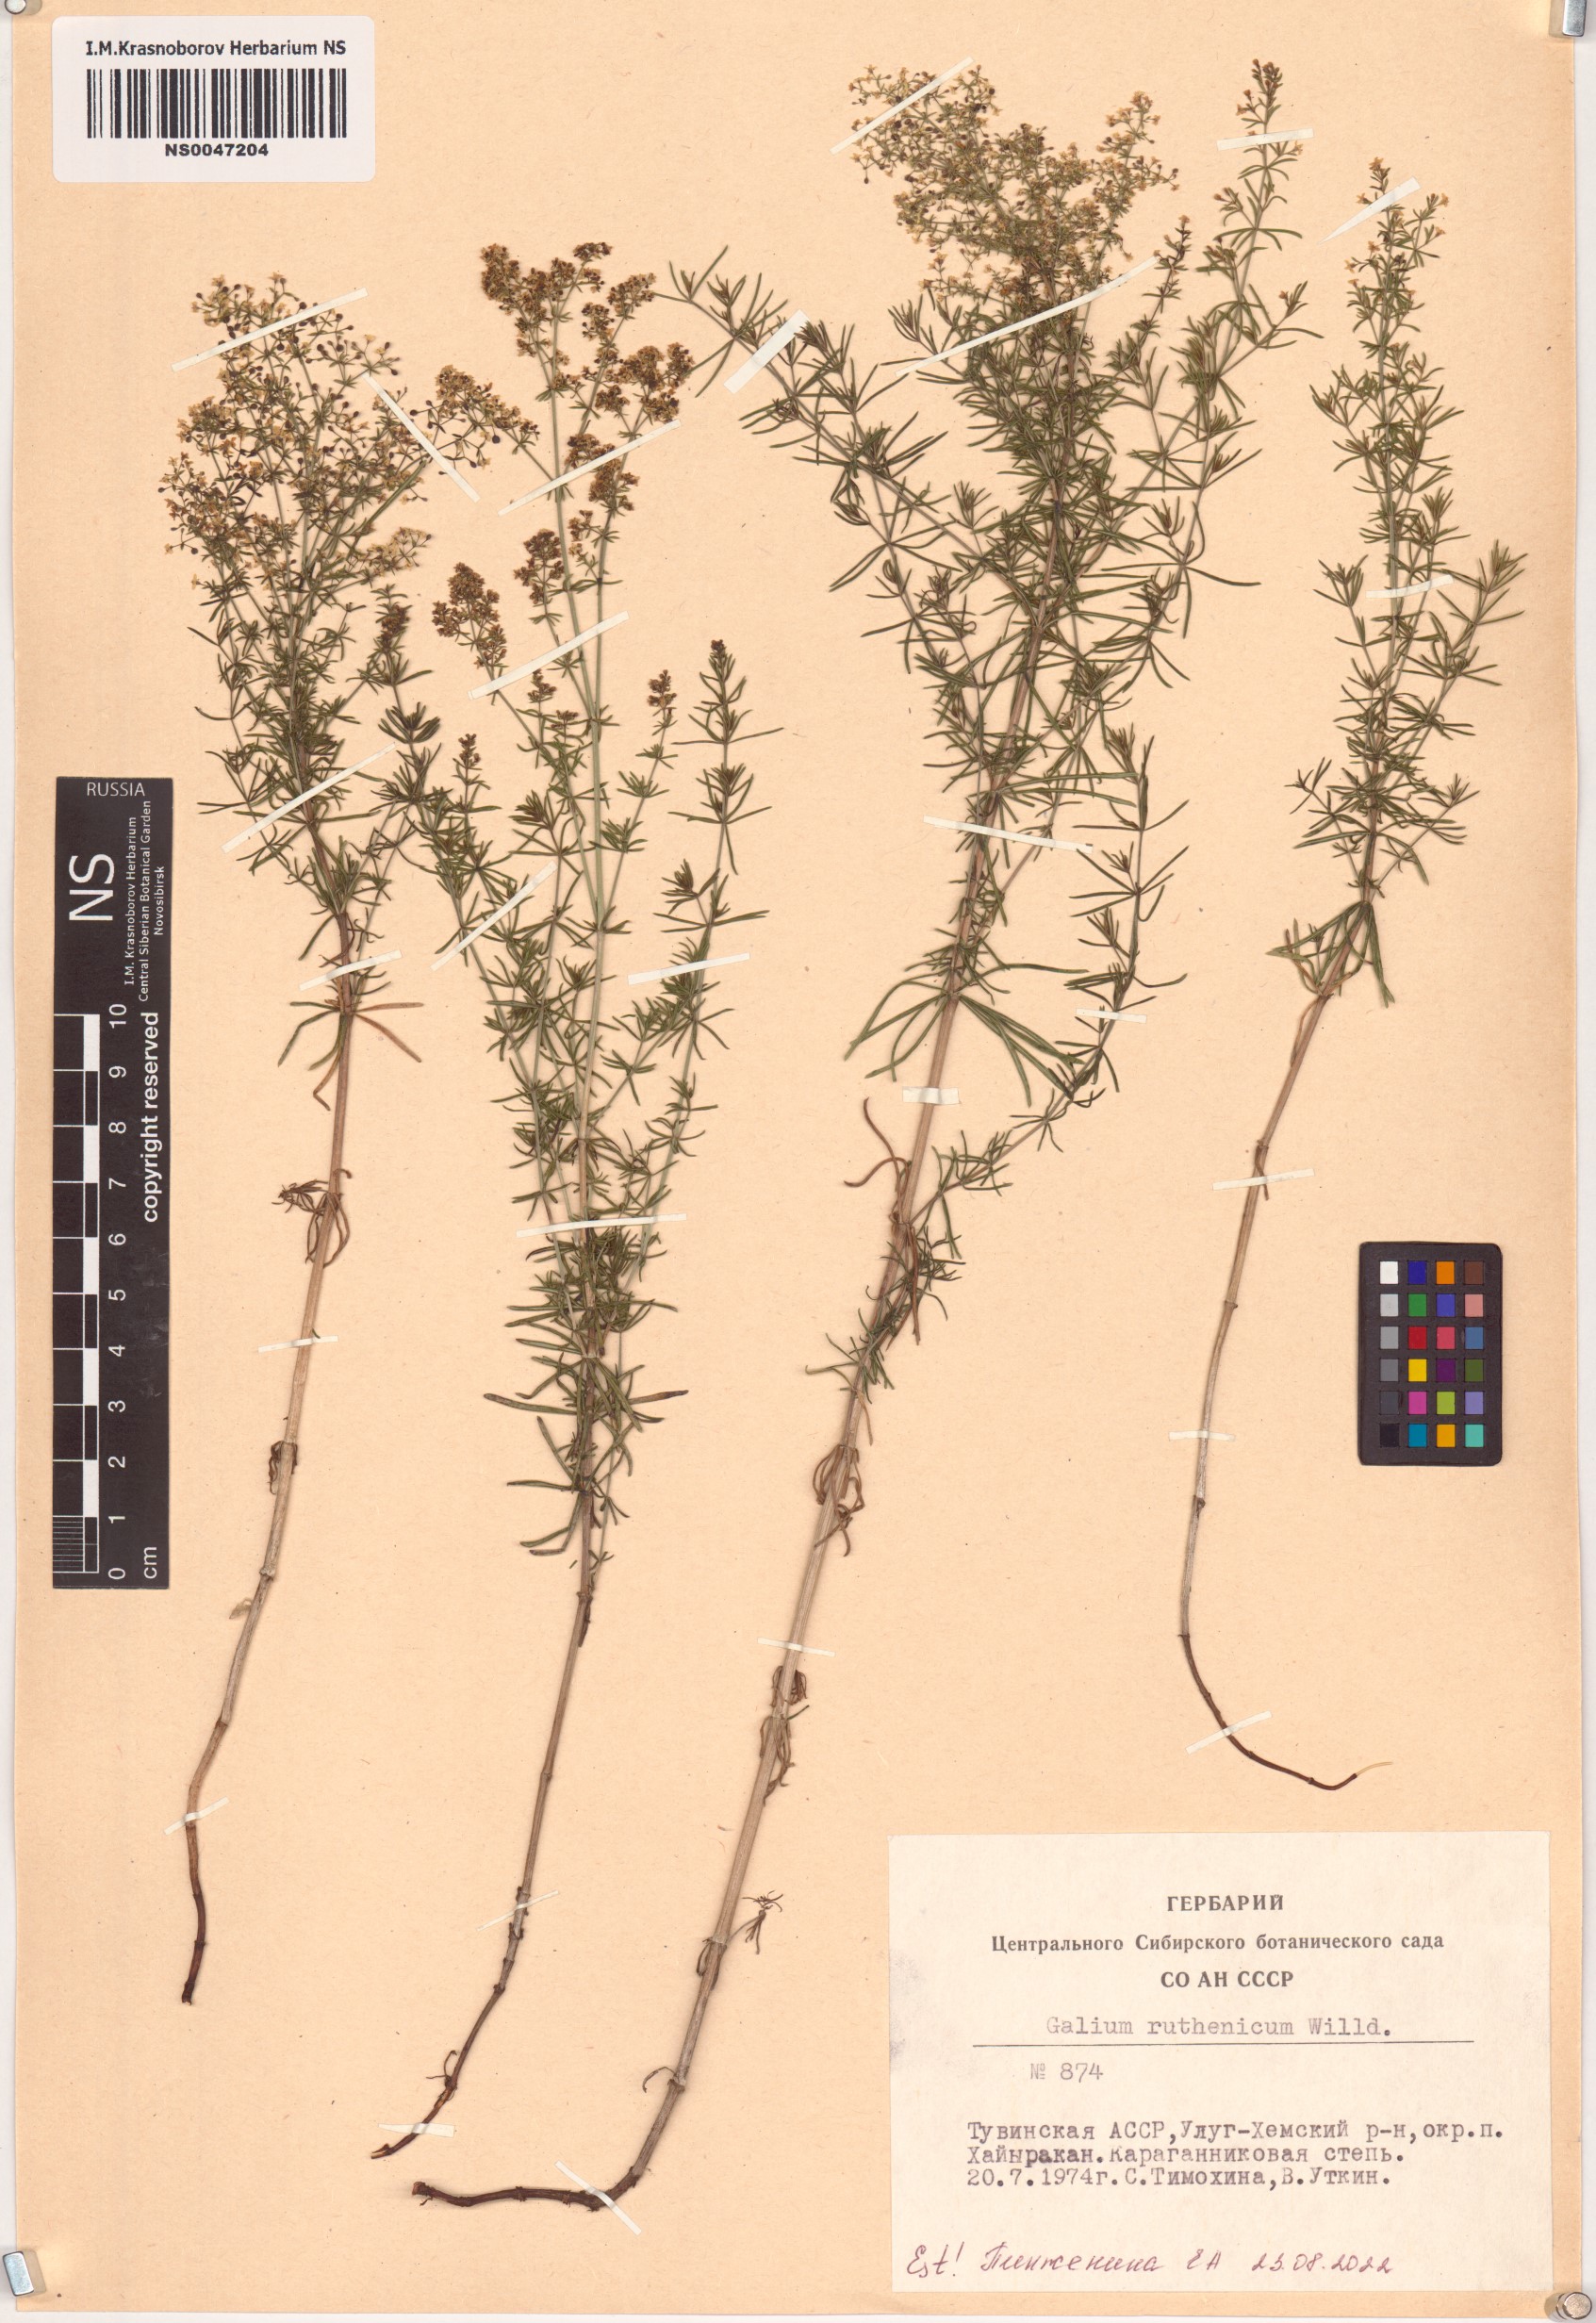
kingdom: Plantae
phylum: Tracheophyta
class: Magnoliopsida
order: Gentianales
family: Rubiaceae
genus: Galium
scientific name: Galium verum
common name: Lady's bedstraw
